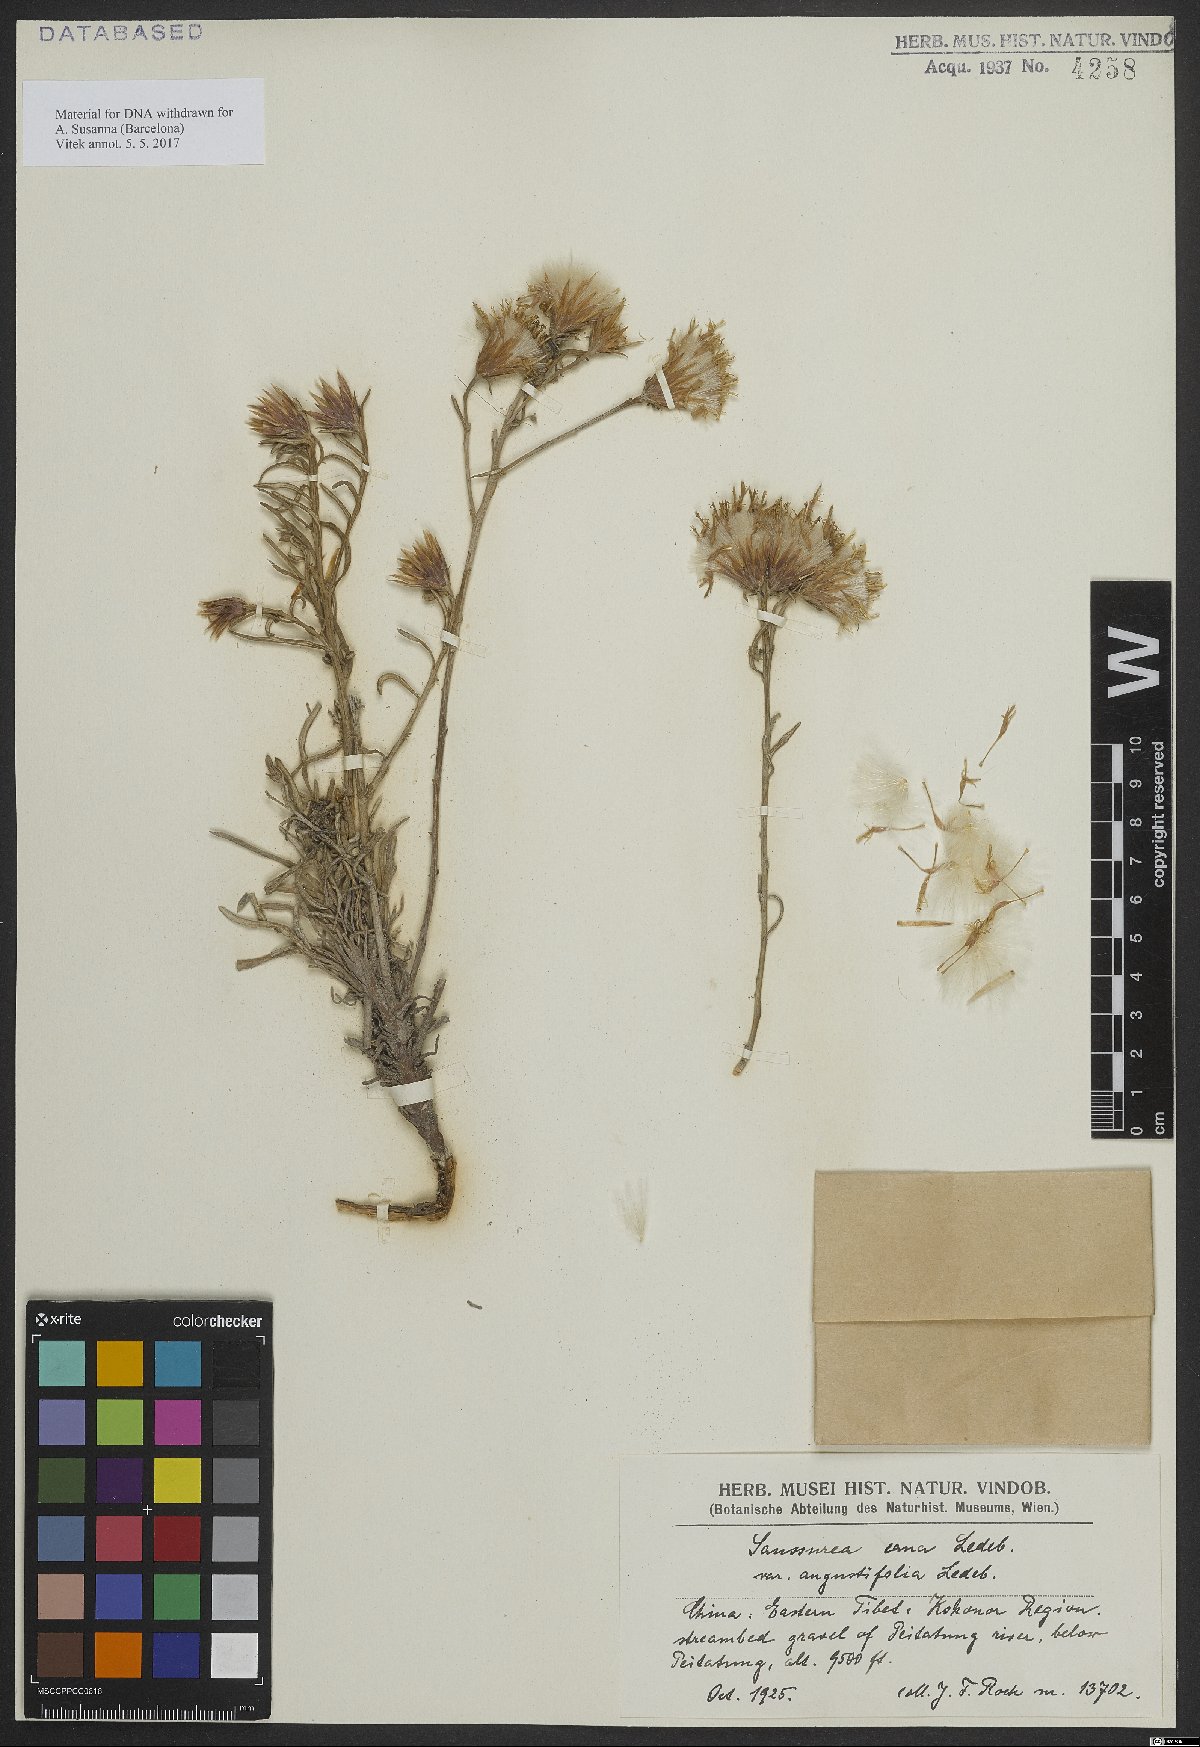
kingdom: Plantae
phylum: Tracheophyta
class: Magnoliopsida
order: Asterales
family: Asteraceae
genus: Saussurea
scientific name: Saussurea cana
